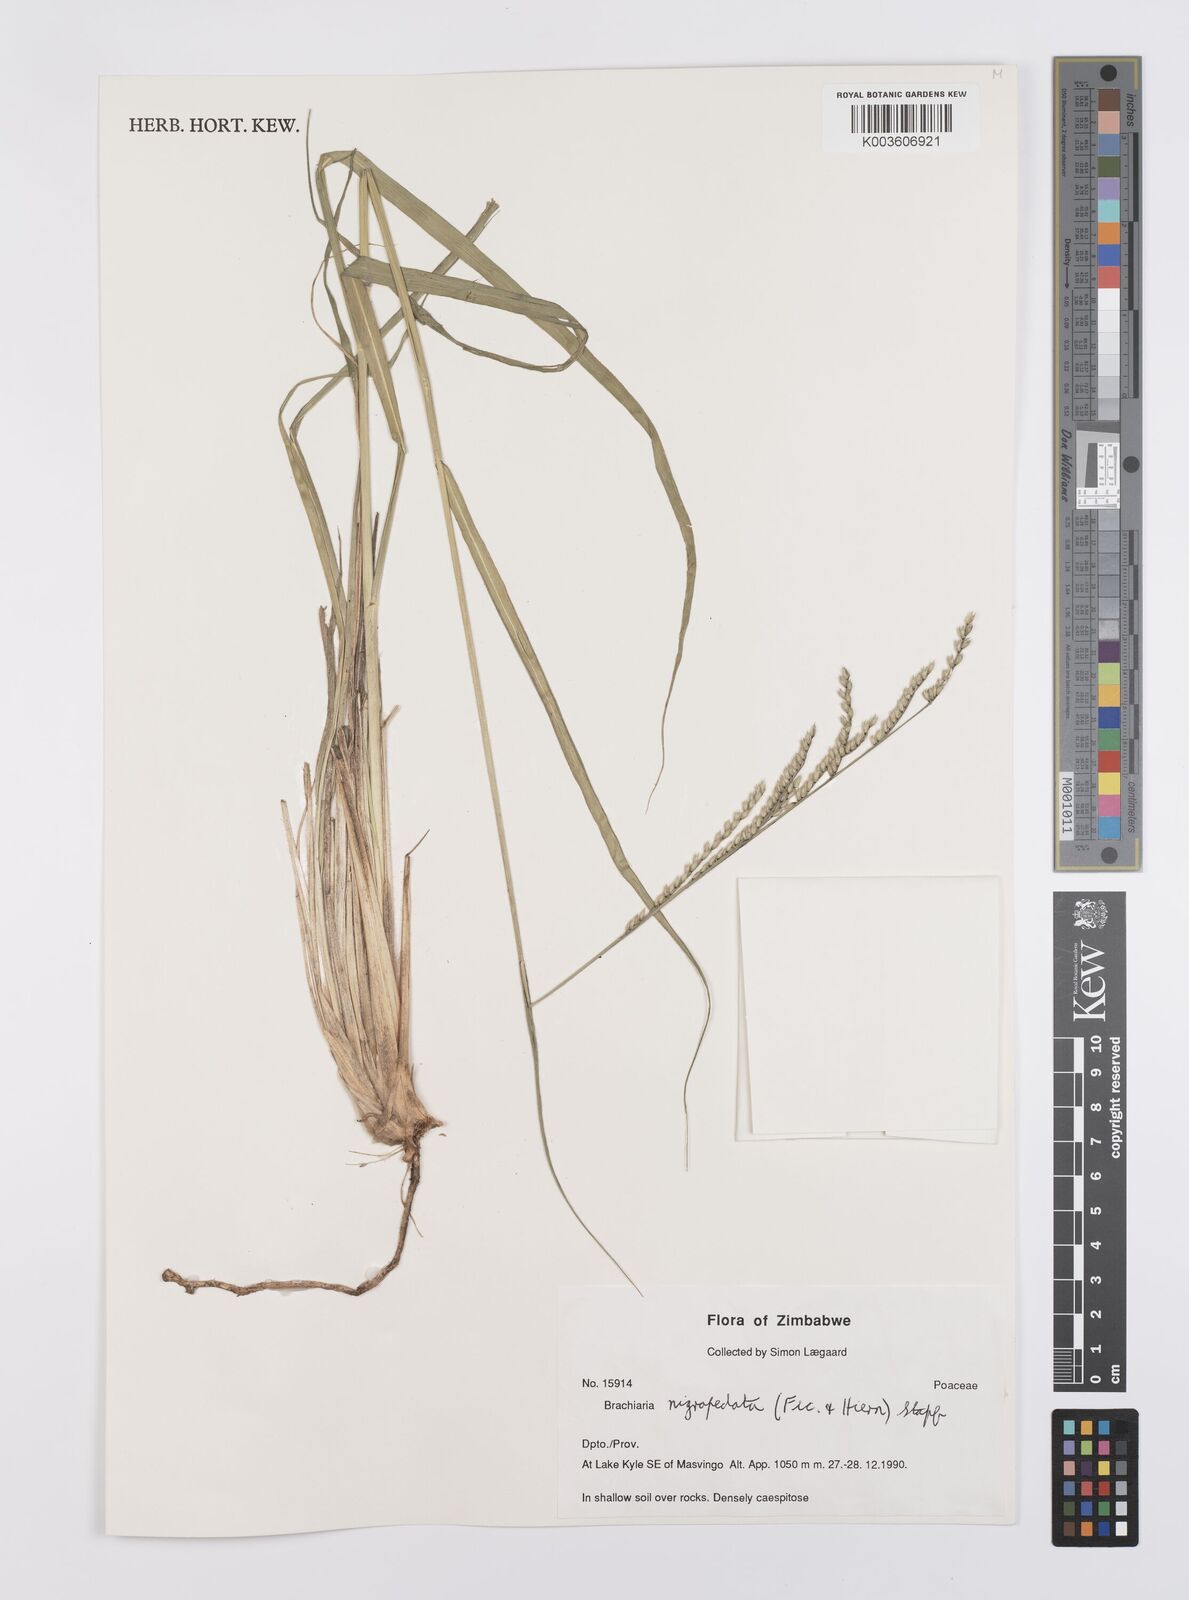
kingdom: Plantae
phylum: Tracheophyta
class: Liliopsida
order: Poales
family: Poaceae
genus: Urochloa
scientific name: Urochloa nigropedata
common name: Spotted signal grass
